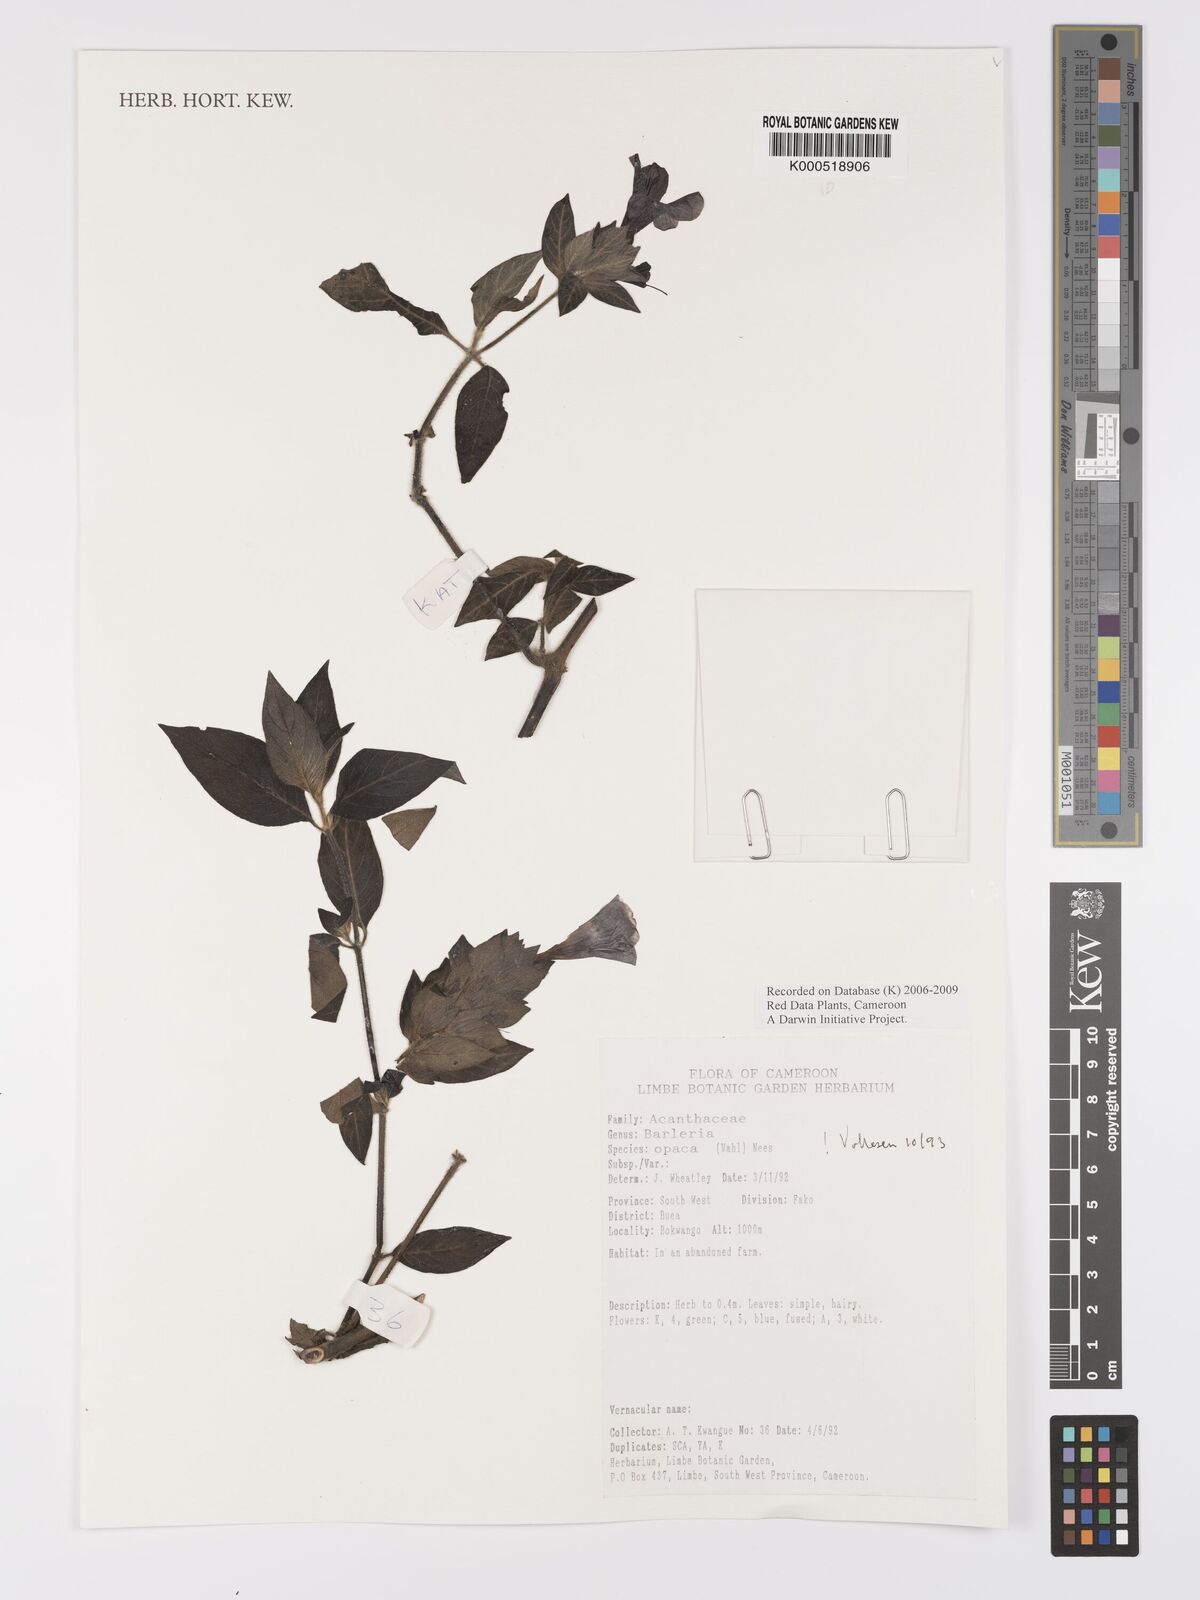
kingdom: Plantae
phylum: Tracheophyta
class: Magnoliopsida
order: Lamiales
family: Acanthaceae
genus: Barleria
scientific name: Barleria opaca
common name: Kwahu
